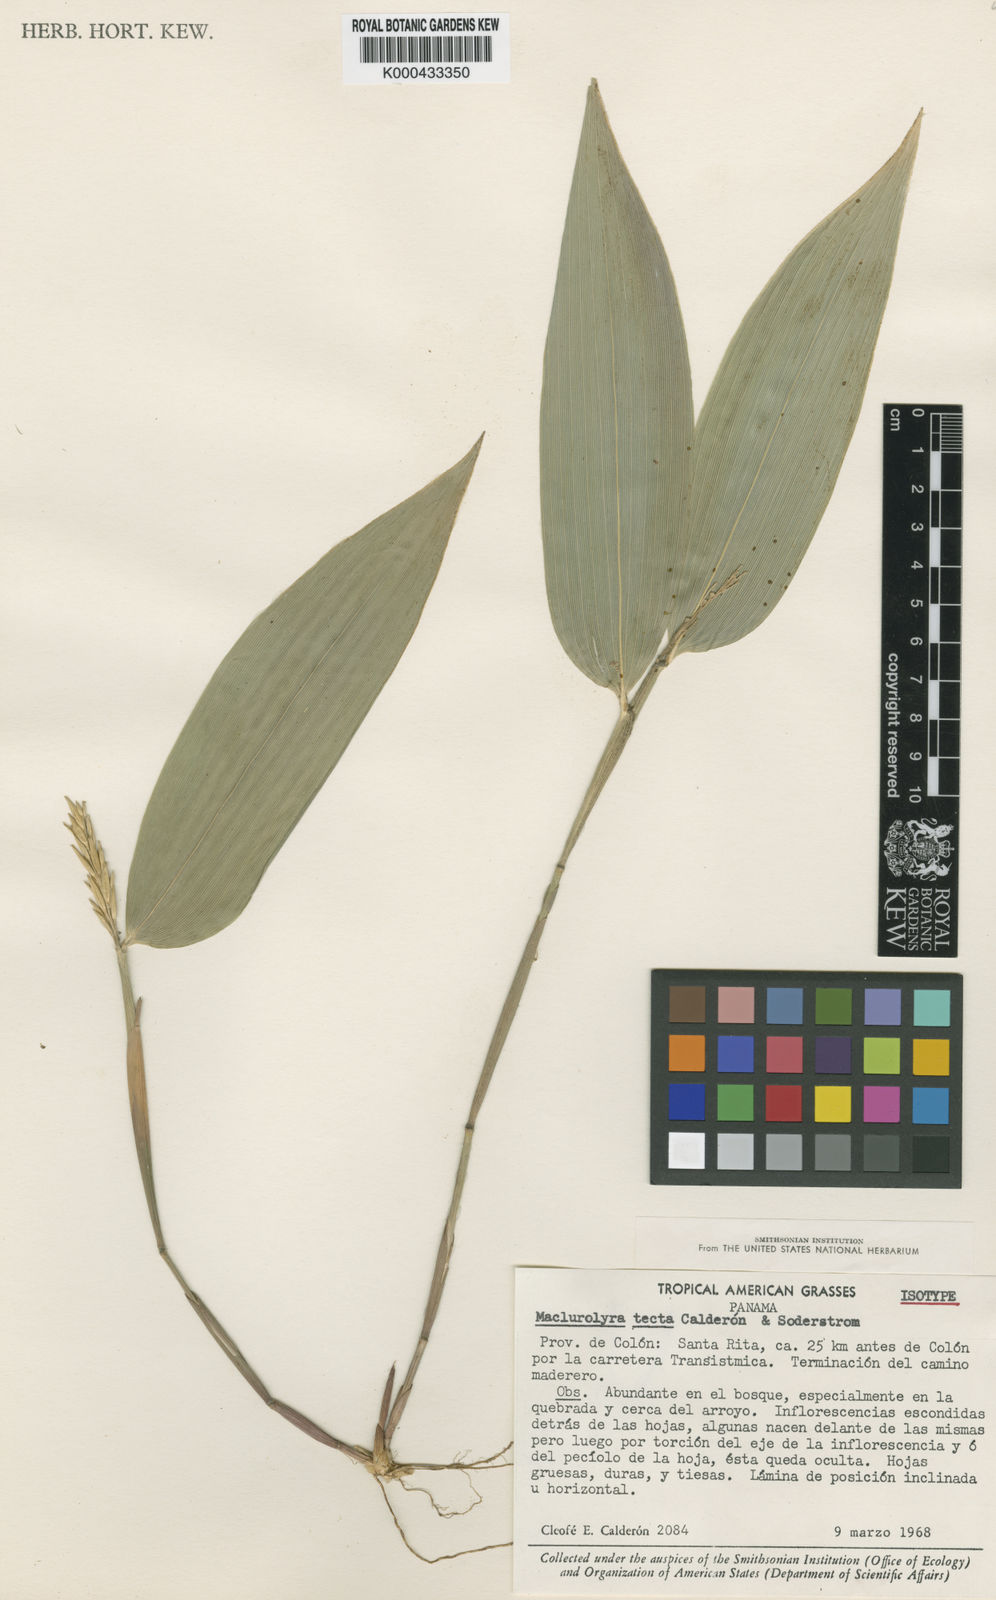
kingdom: Plantae
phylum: Tracheophyta
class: Liliopsida
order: Poales
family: Poaceae
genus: Maclurolyra
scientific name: Maclurolyra tecta
